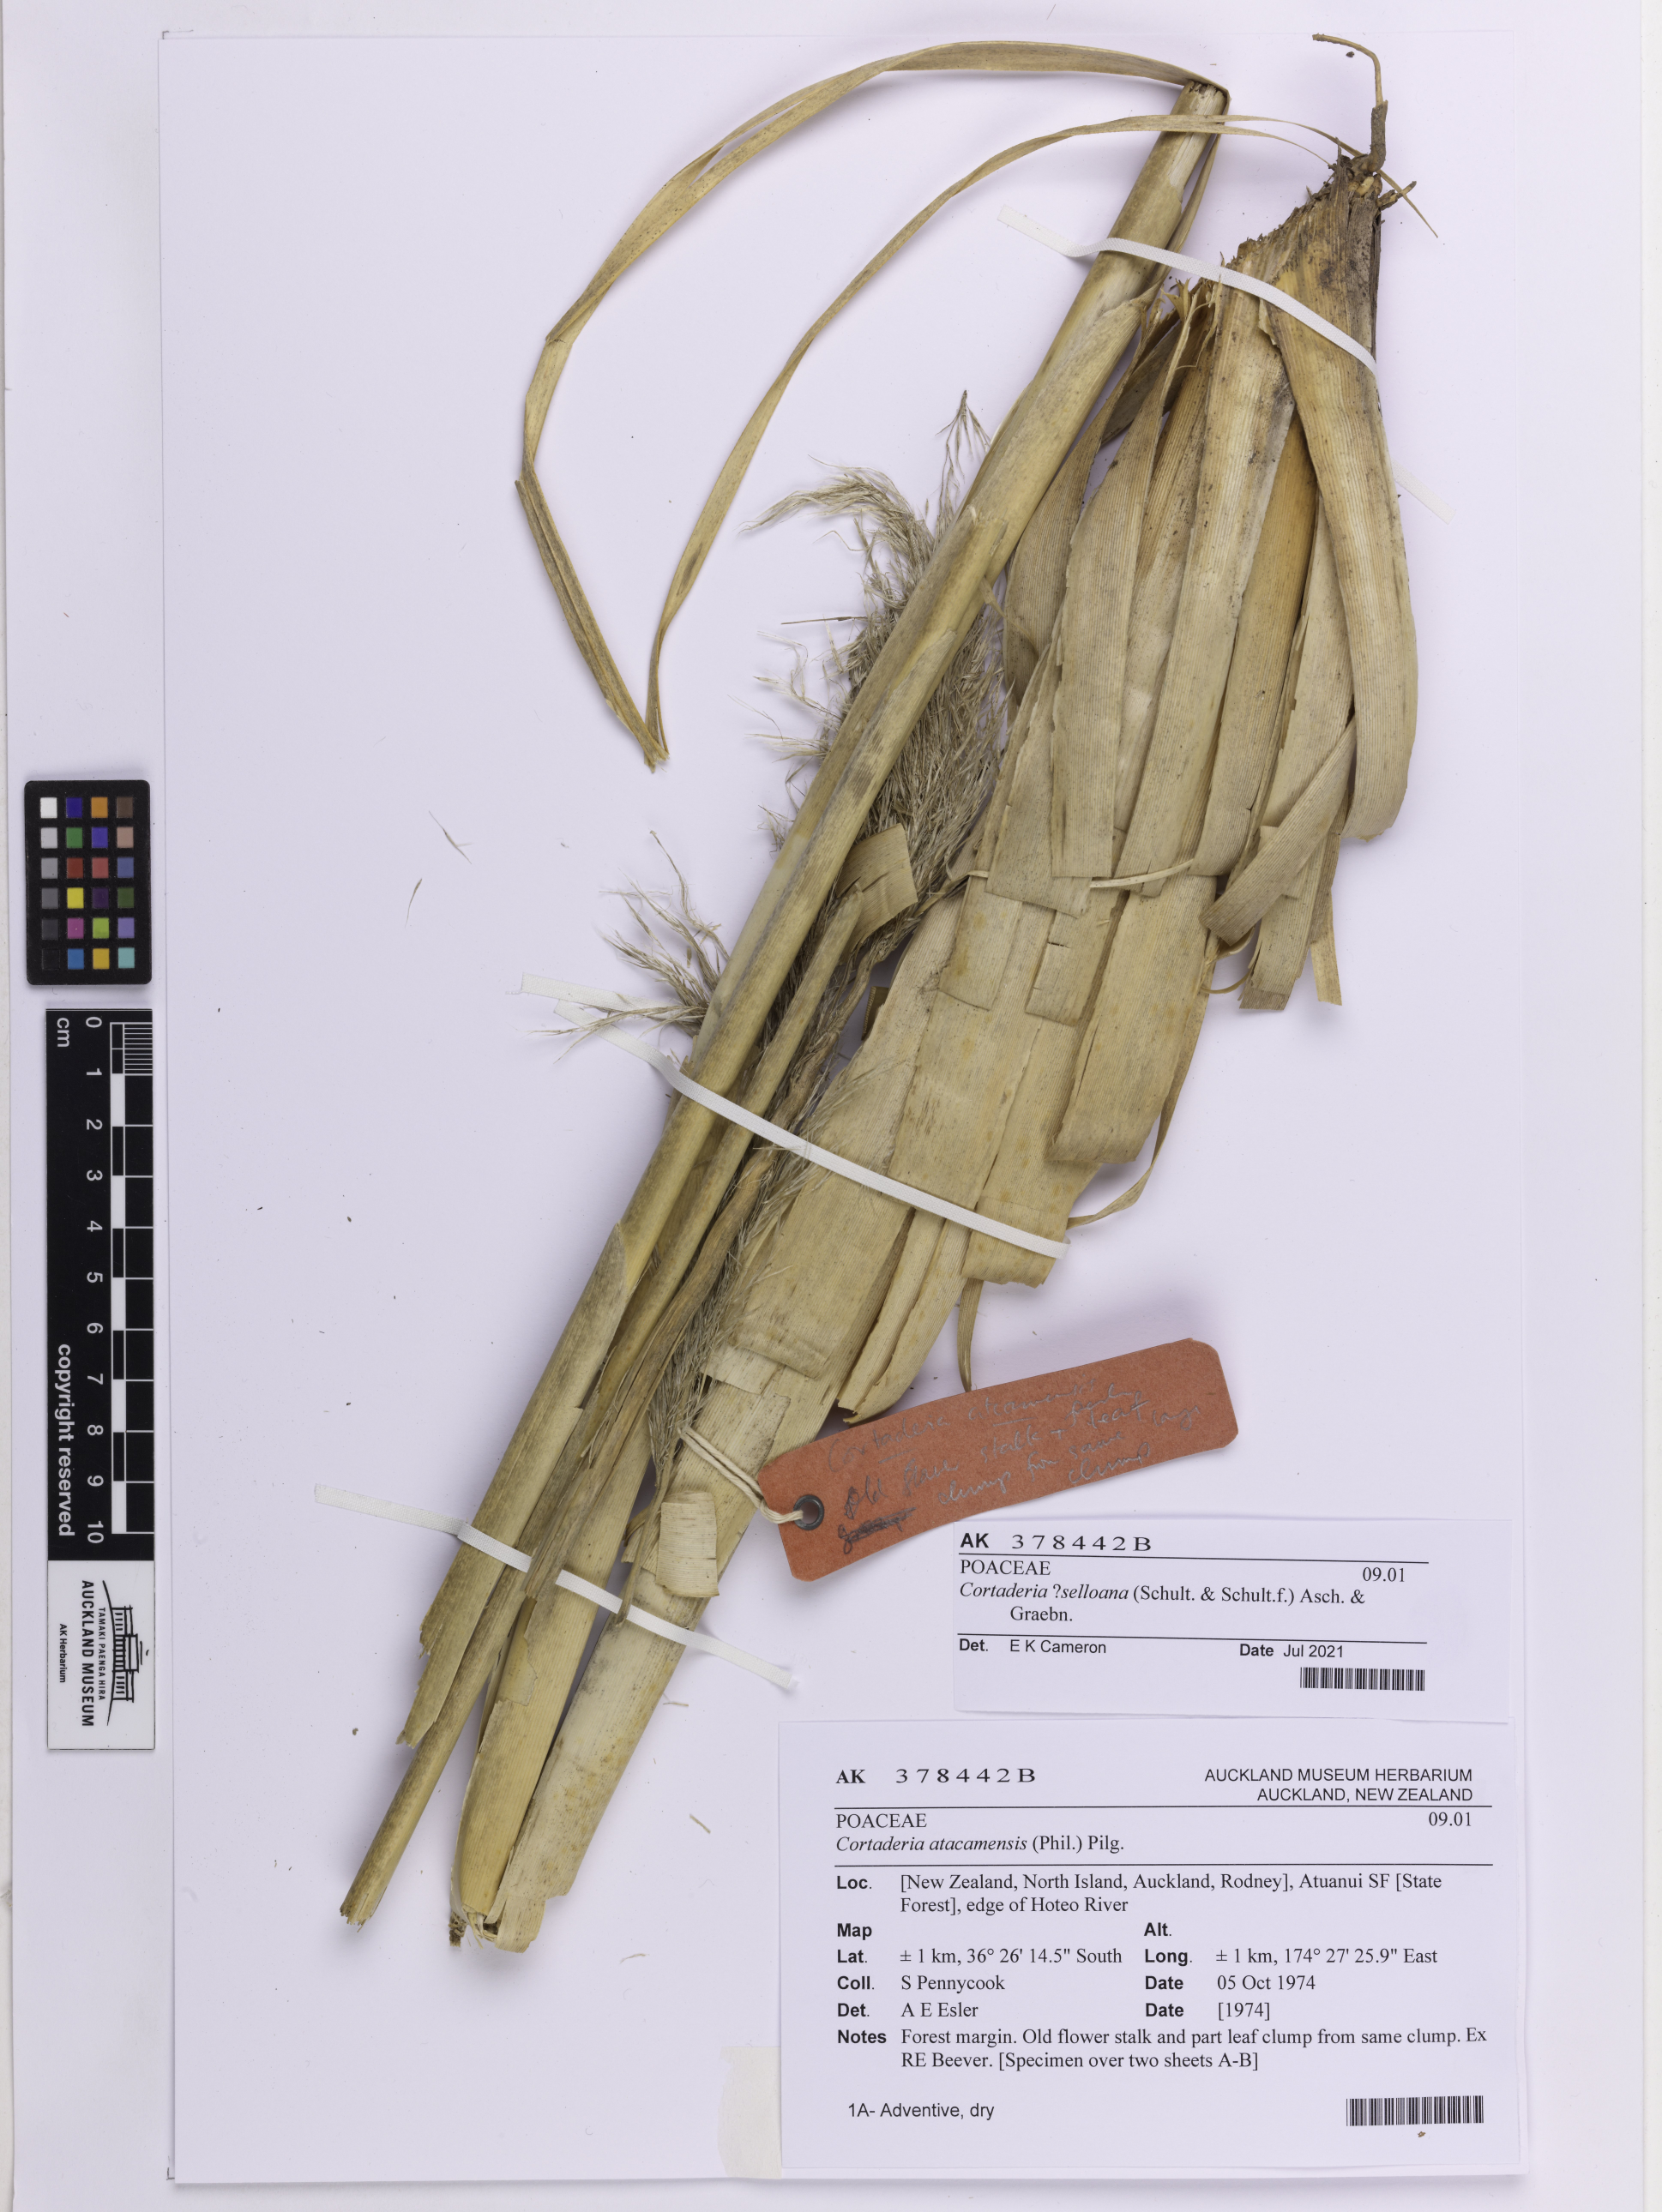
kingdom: Plantae
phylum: Tracheophyta
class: Liliopsida
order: Poales
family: Poaceae
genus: Cortaderia
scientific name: Cortaderia selloana
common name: Uruguayan pampas grass
